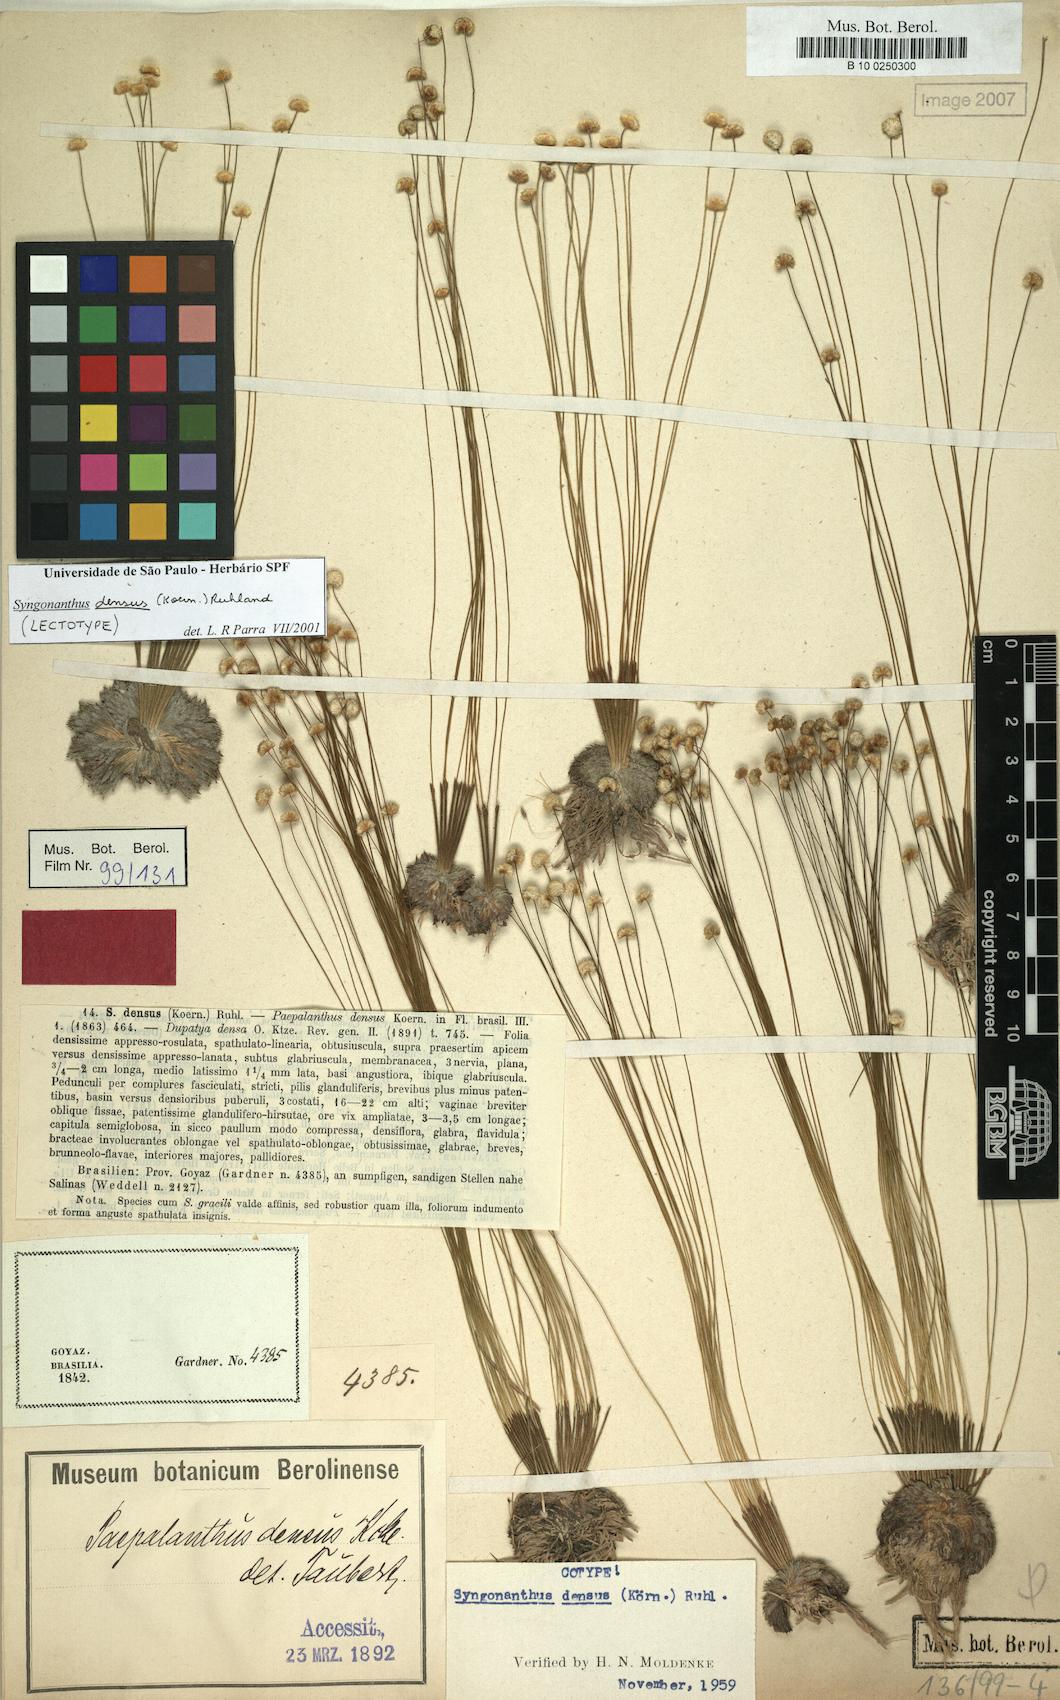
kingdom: Plantae
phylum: Tracheophyta
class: Liliopsida
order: Poales
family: Eriocaulaceae
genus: Syngonanthus
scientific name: Syngonanthus densus
